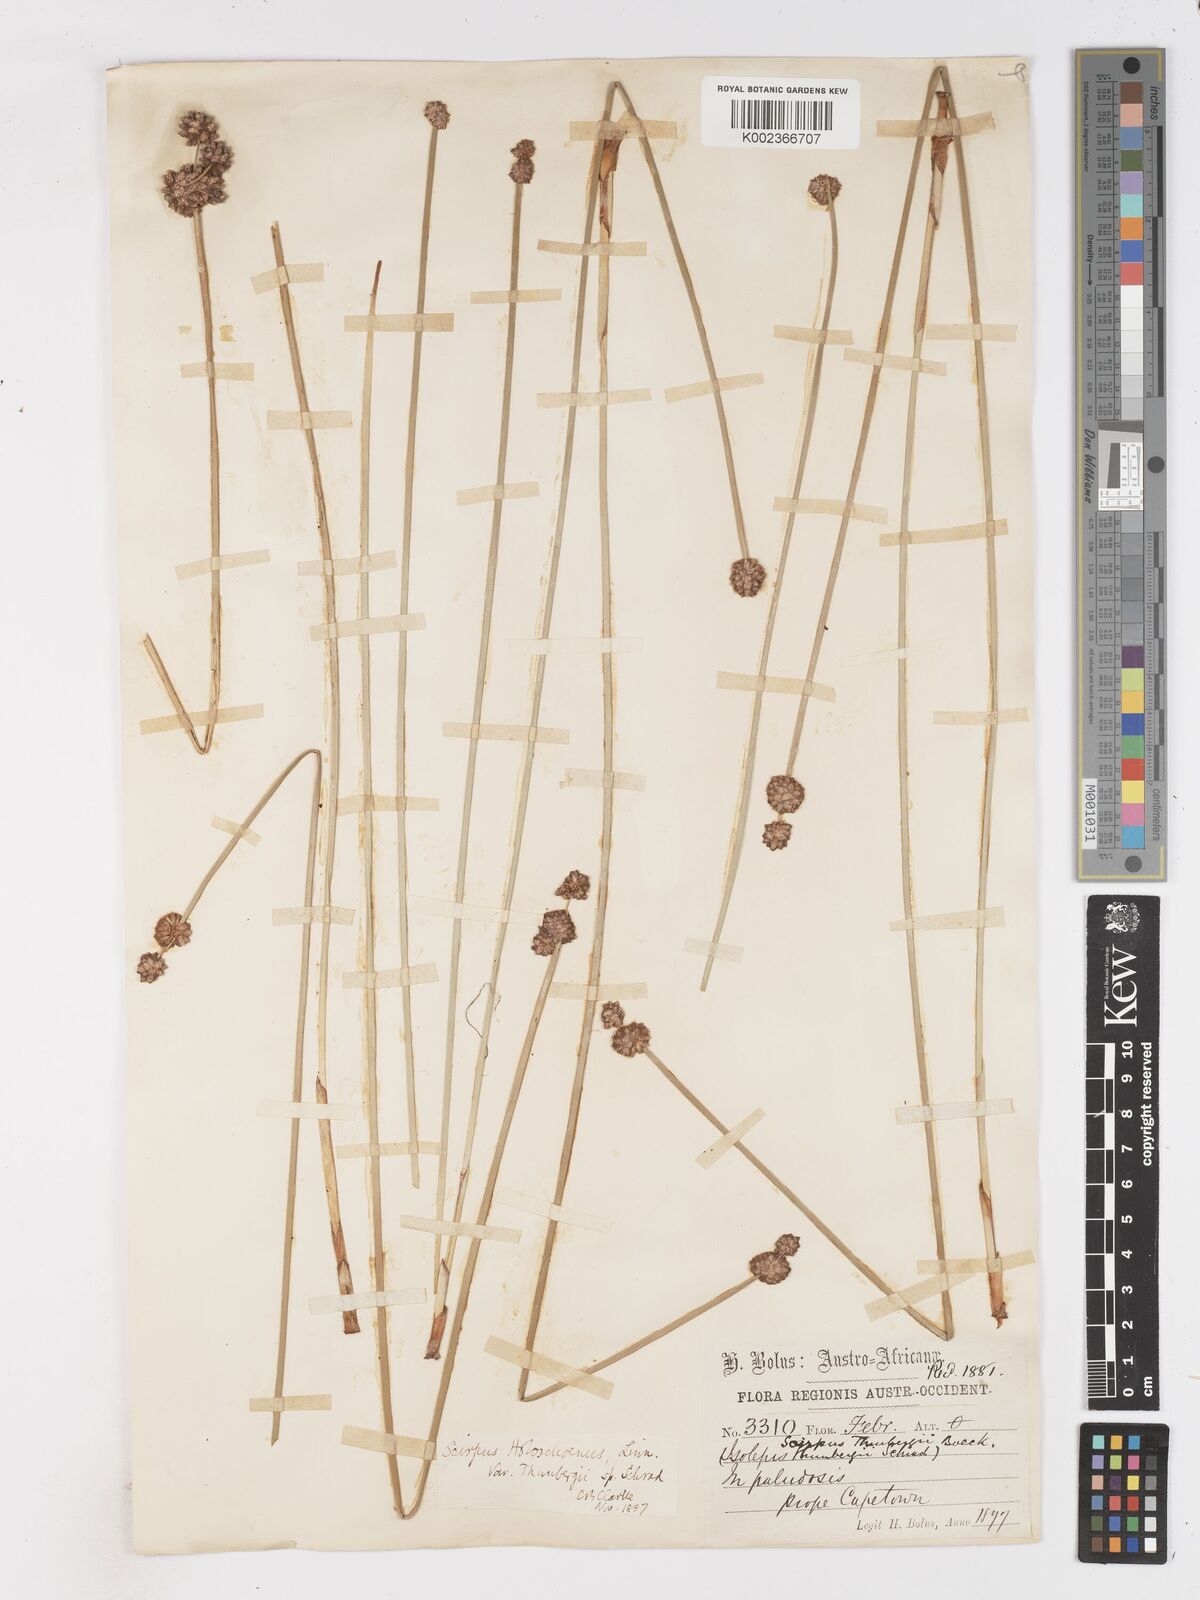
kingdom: Plantae
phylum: Tracheophyta
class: Liliopsida
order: Poales
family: Cyperaceae
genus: Scirpoides
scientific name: Scirpoides holoschoenus
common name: Round-headed club-rush
